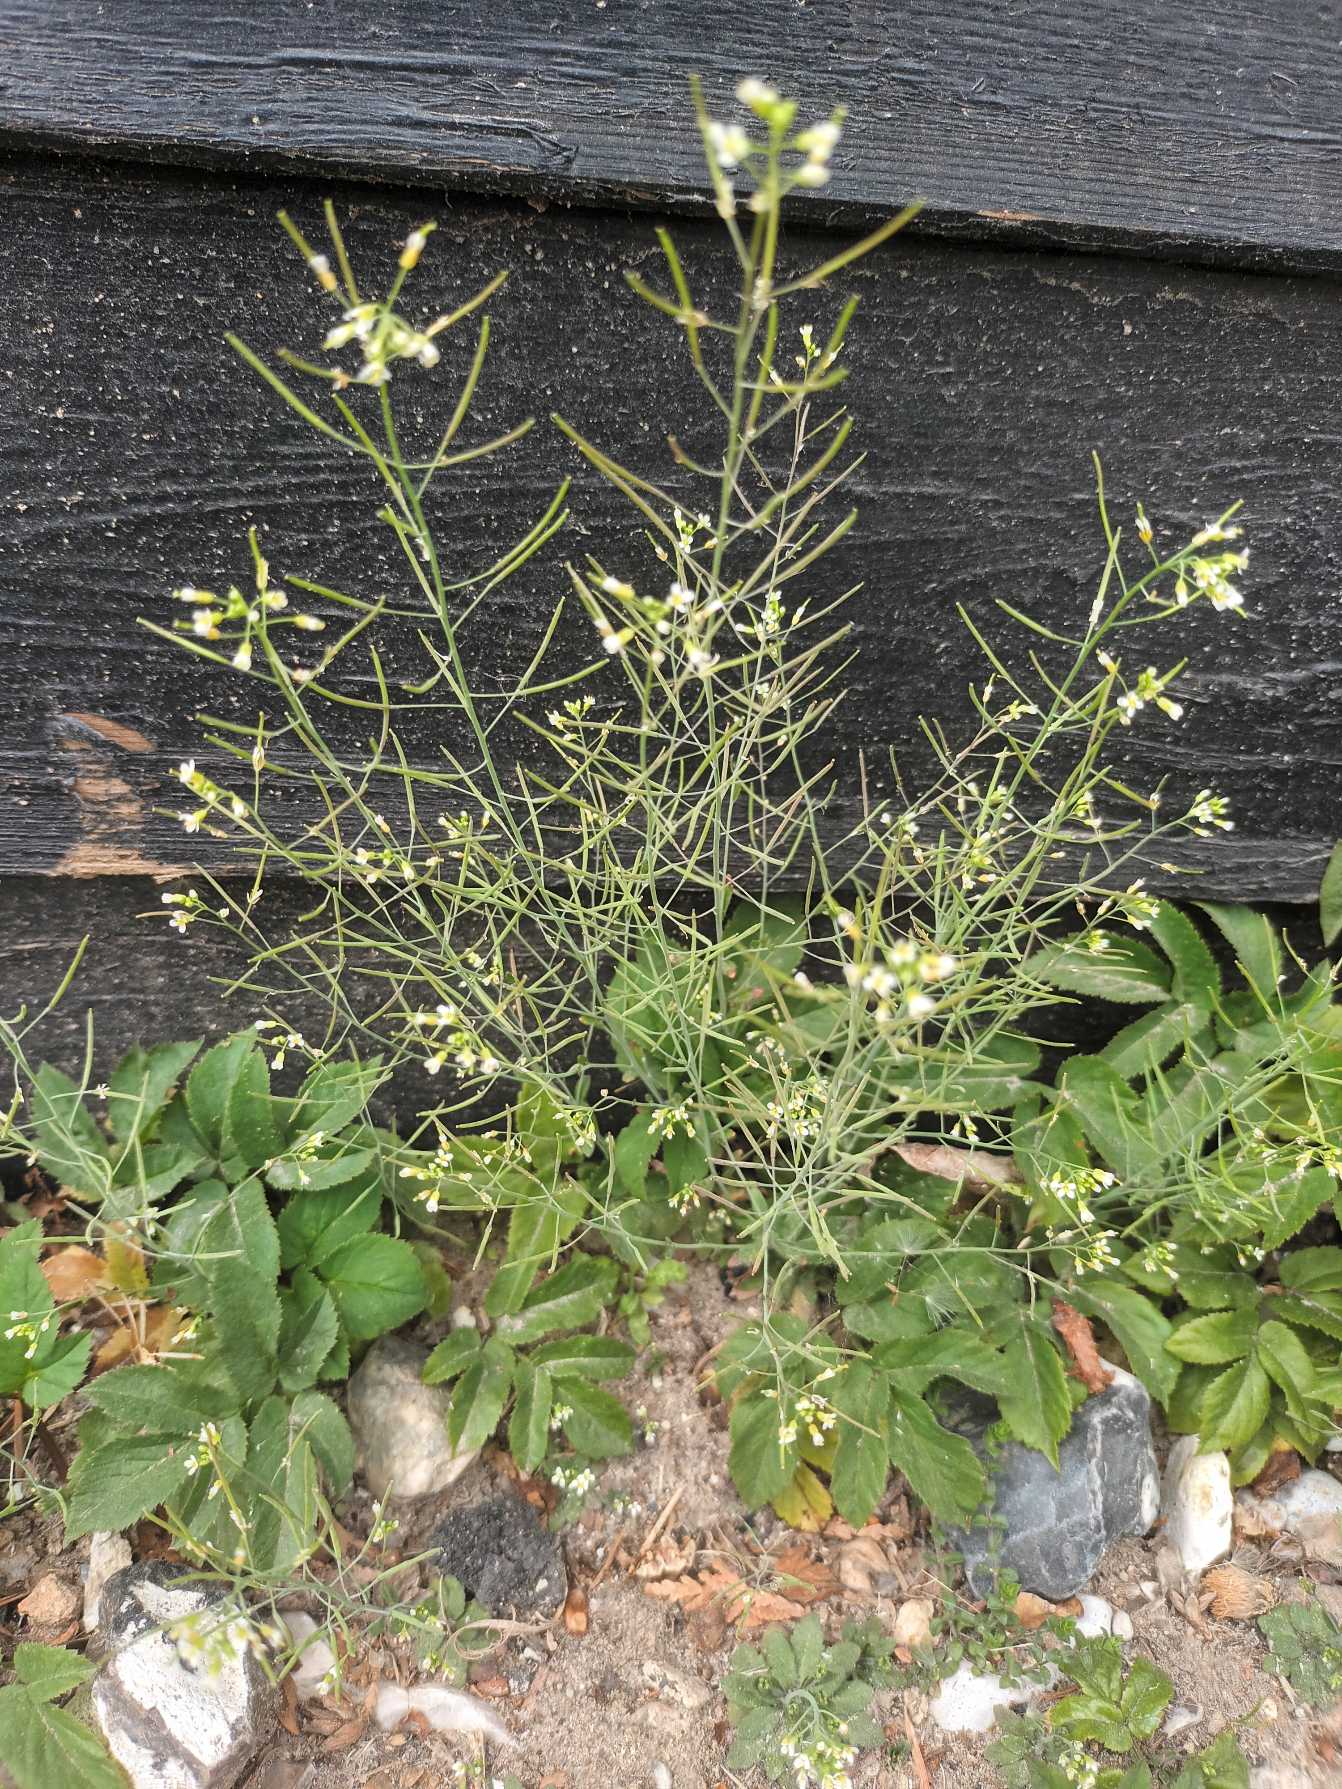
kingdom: Plantae
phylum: Tracheophyta
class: Magnoliopsida
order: Brassicales
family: Brassicaceae
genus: Arabidopsis
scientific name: Arabidopsis thaliana
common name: Almindelig gåsemad
